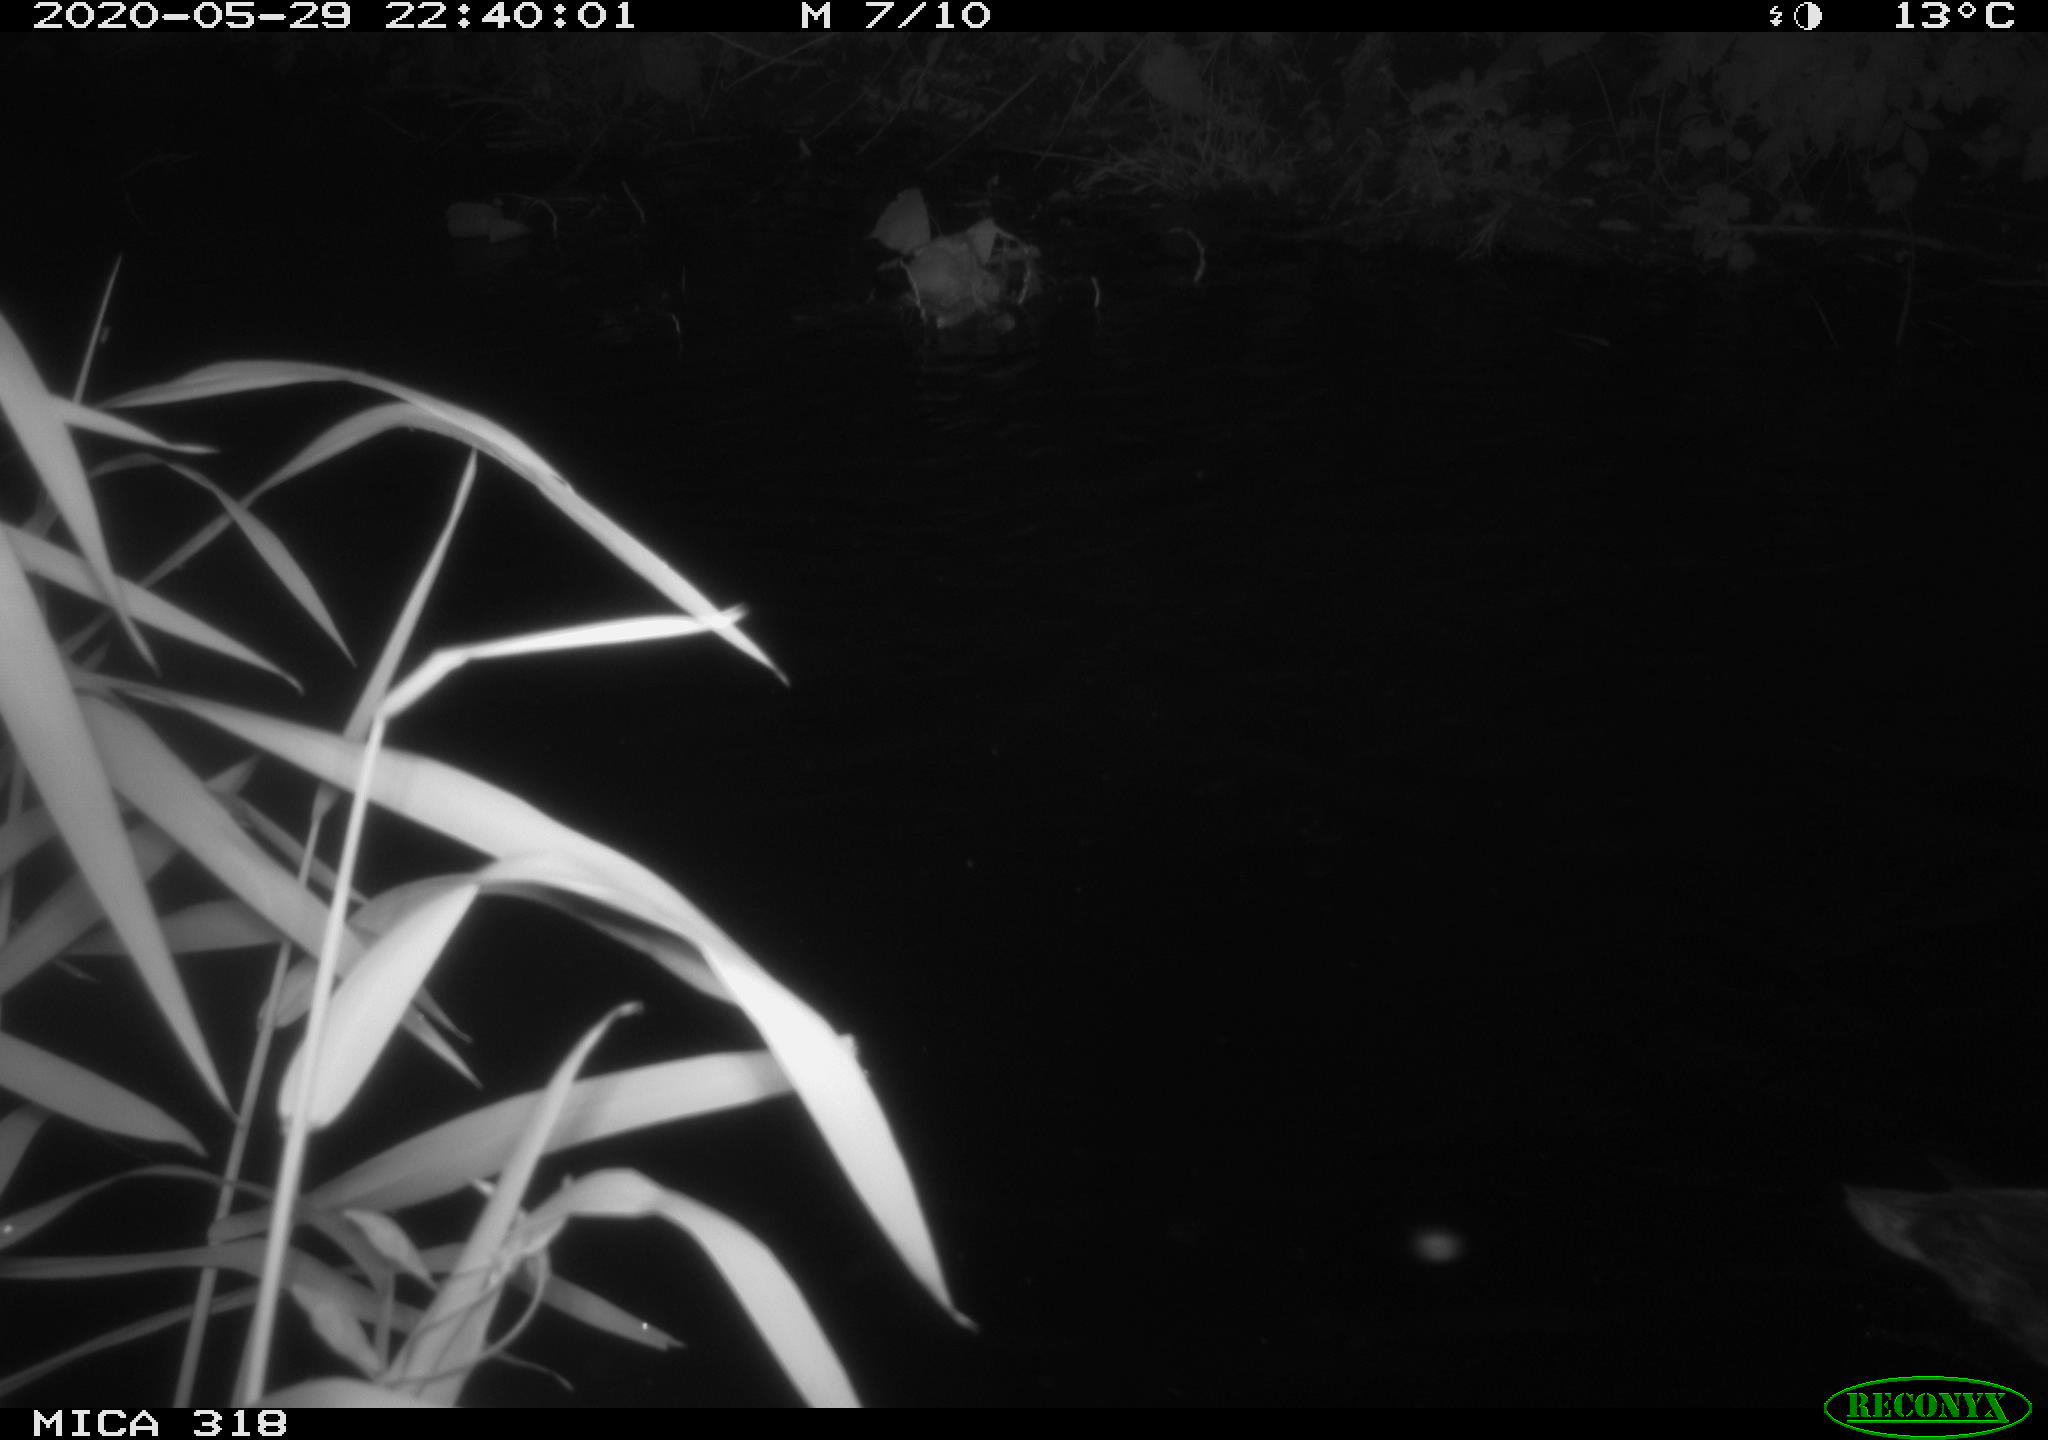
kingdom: Animalia
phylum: Chordata
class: Aves
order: Anseriformes
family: Anatidae
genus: Anas
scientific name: Anas platyrhynchos
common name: Mallard
